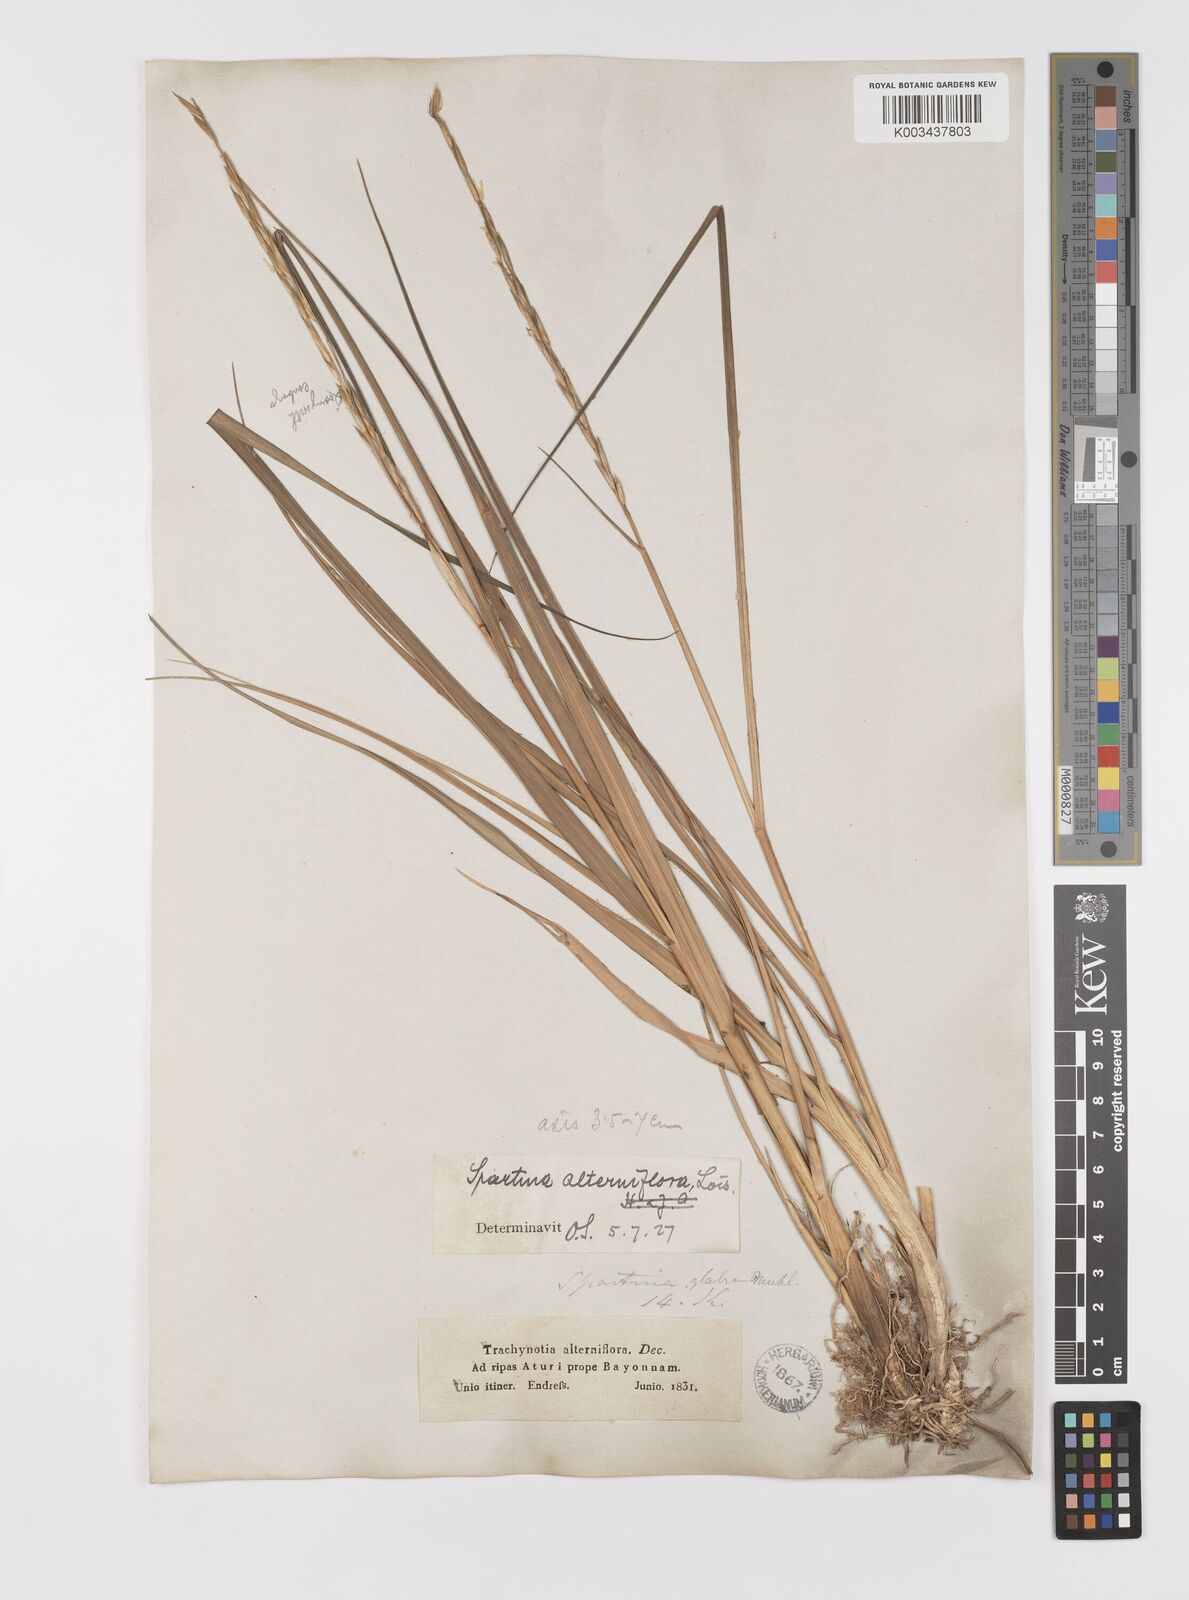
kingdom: Plantae
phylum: Tracheophyta
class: Liliopsida
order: Poales
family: Poaceae
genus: Sporobolus
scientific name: Sporobolus alterniflorus
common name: Atlantic cordgrass
